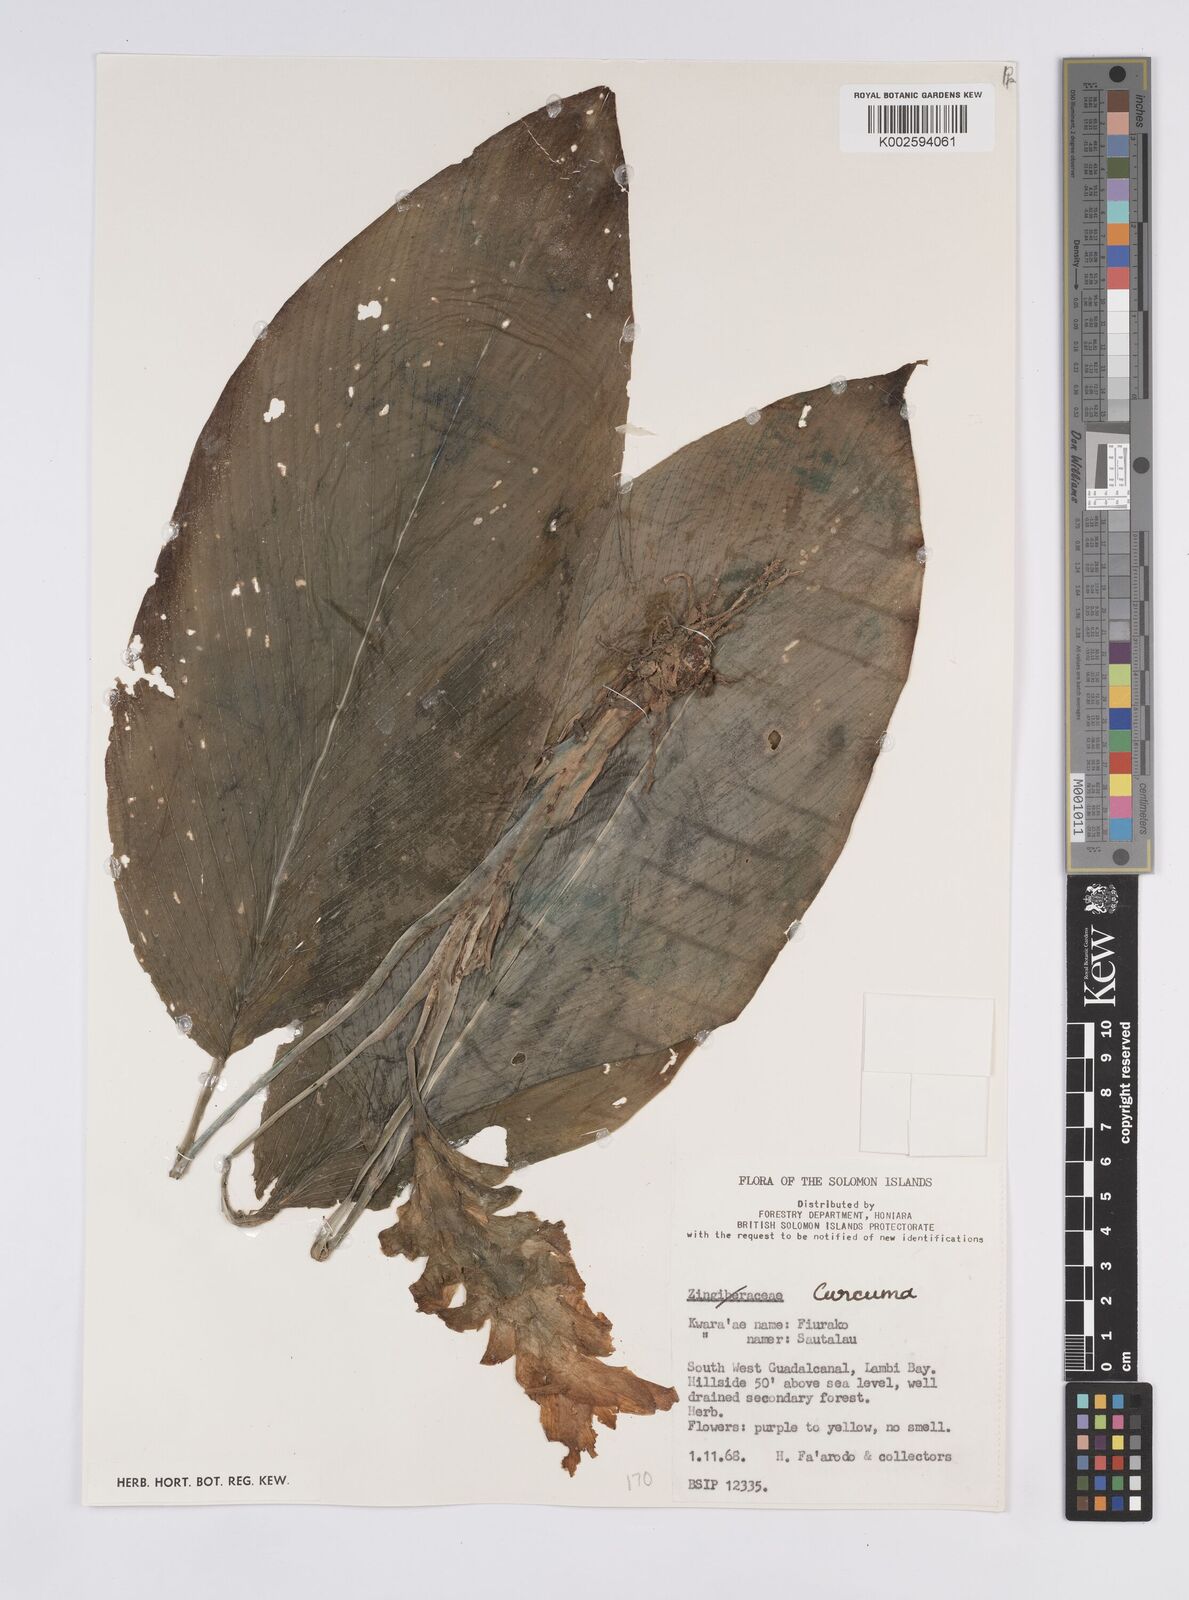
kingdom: Plantae
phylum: Tracheophyta
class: Liliopsida
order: Zingiberales
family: Zingiberaceae
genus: Curcuma
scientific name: Curcuma
